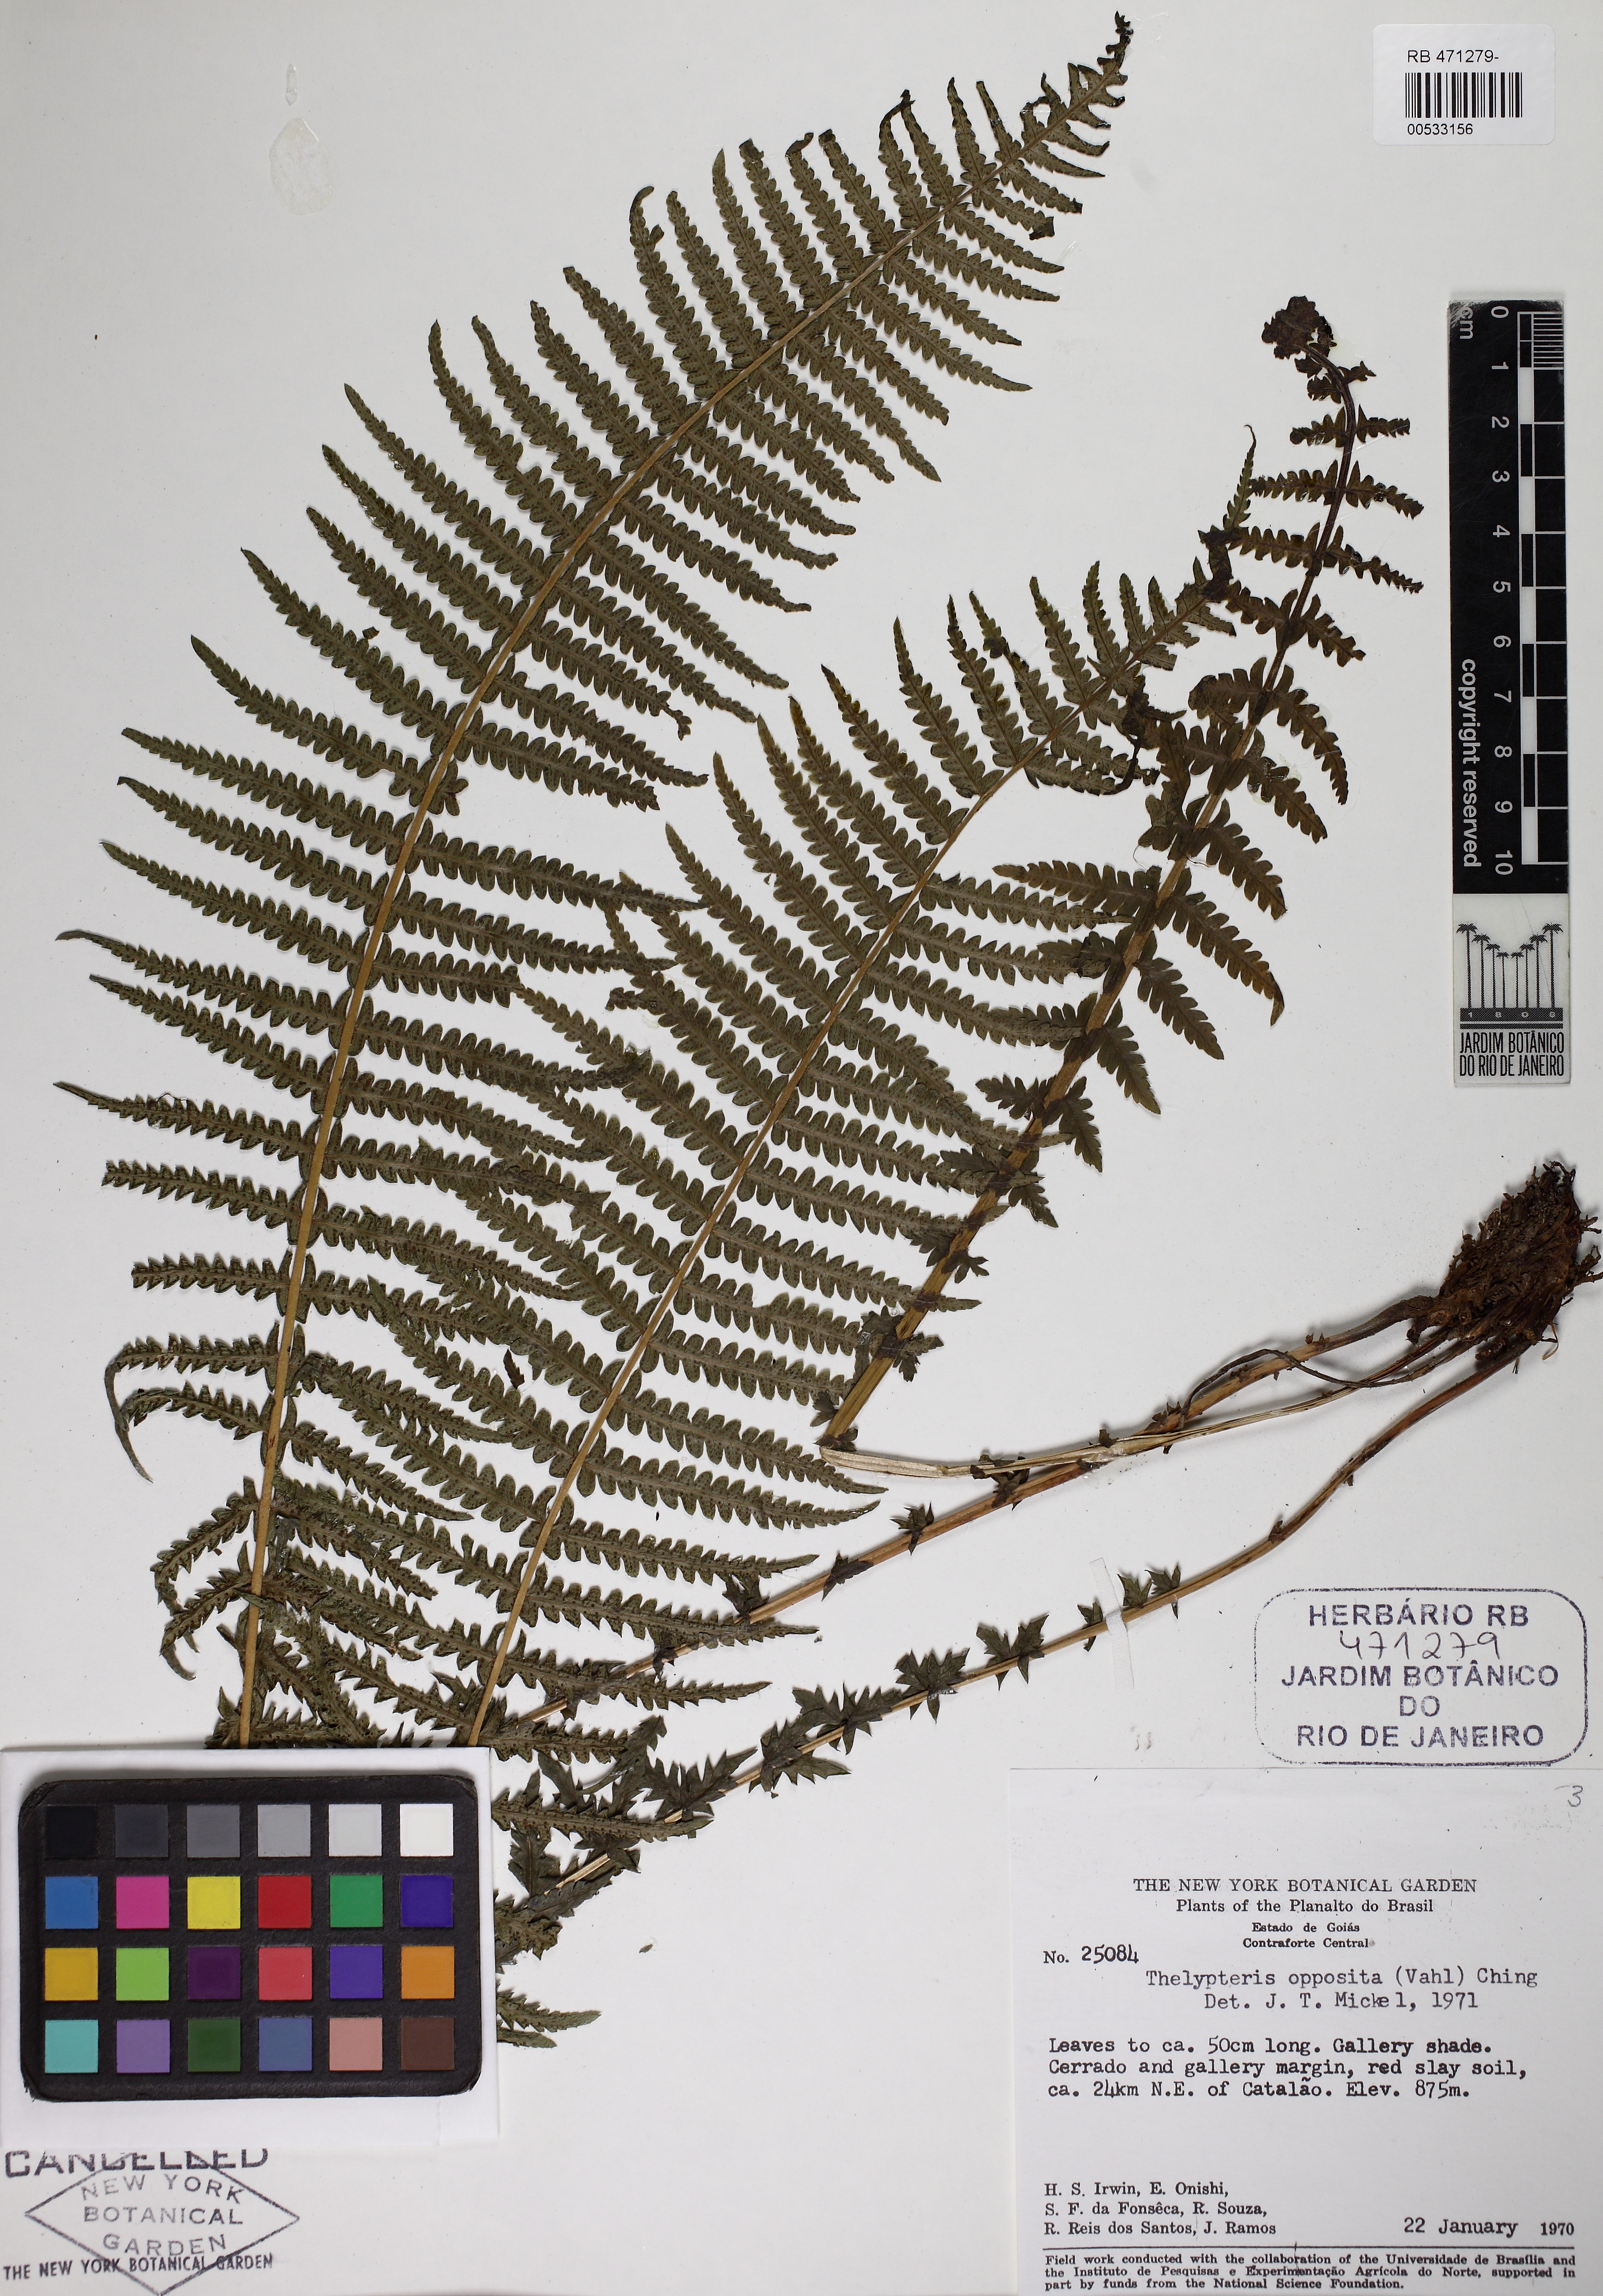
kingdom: Plantae
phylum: Tracheophyta
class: Polypodiopsida
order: Polypodiales
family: Thelypteridaceae
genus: Amauropelta
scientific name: Amauropelta opposita
